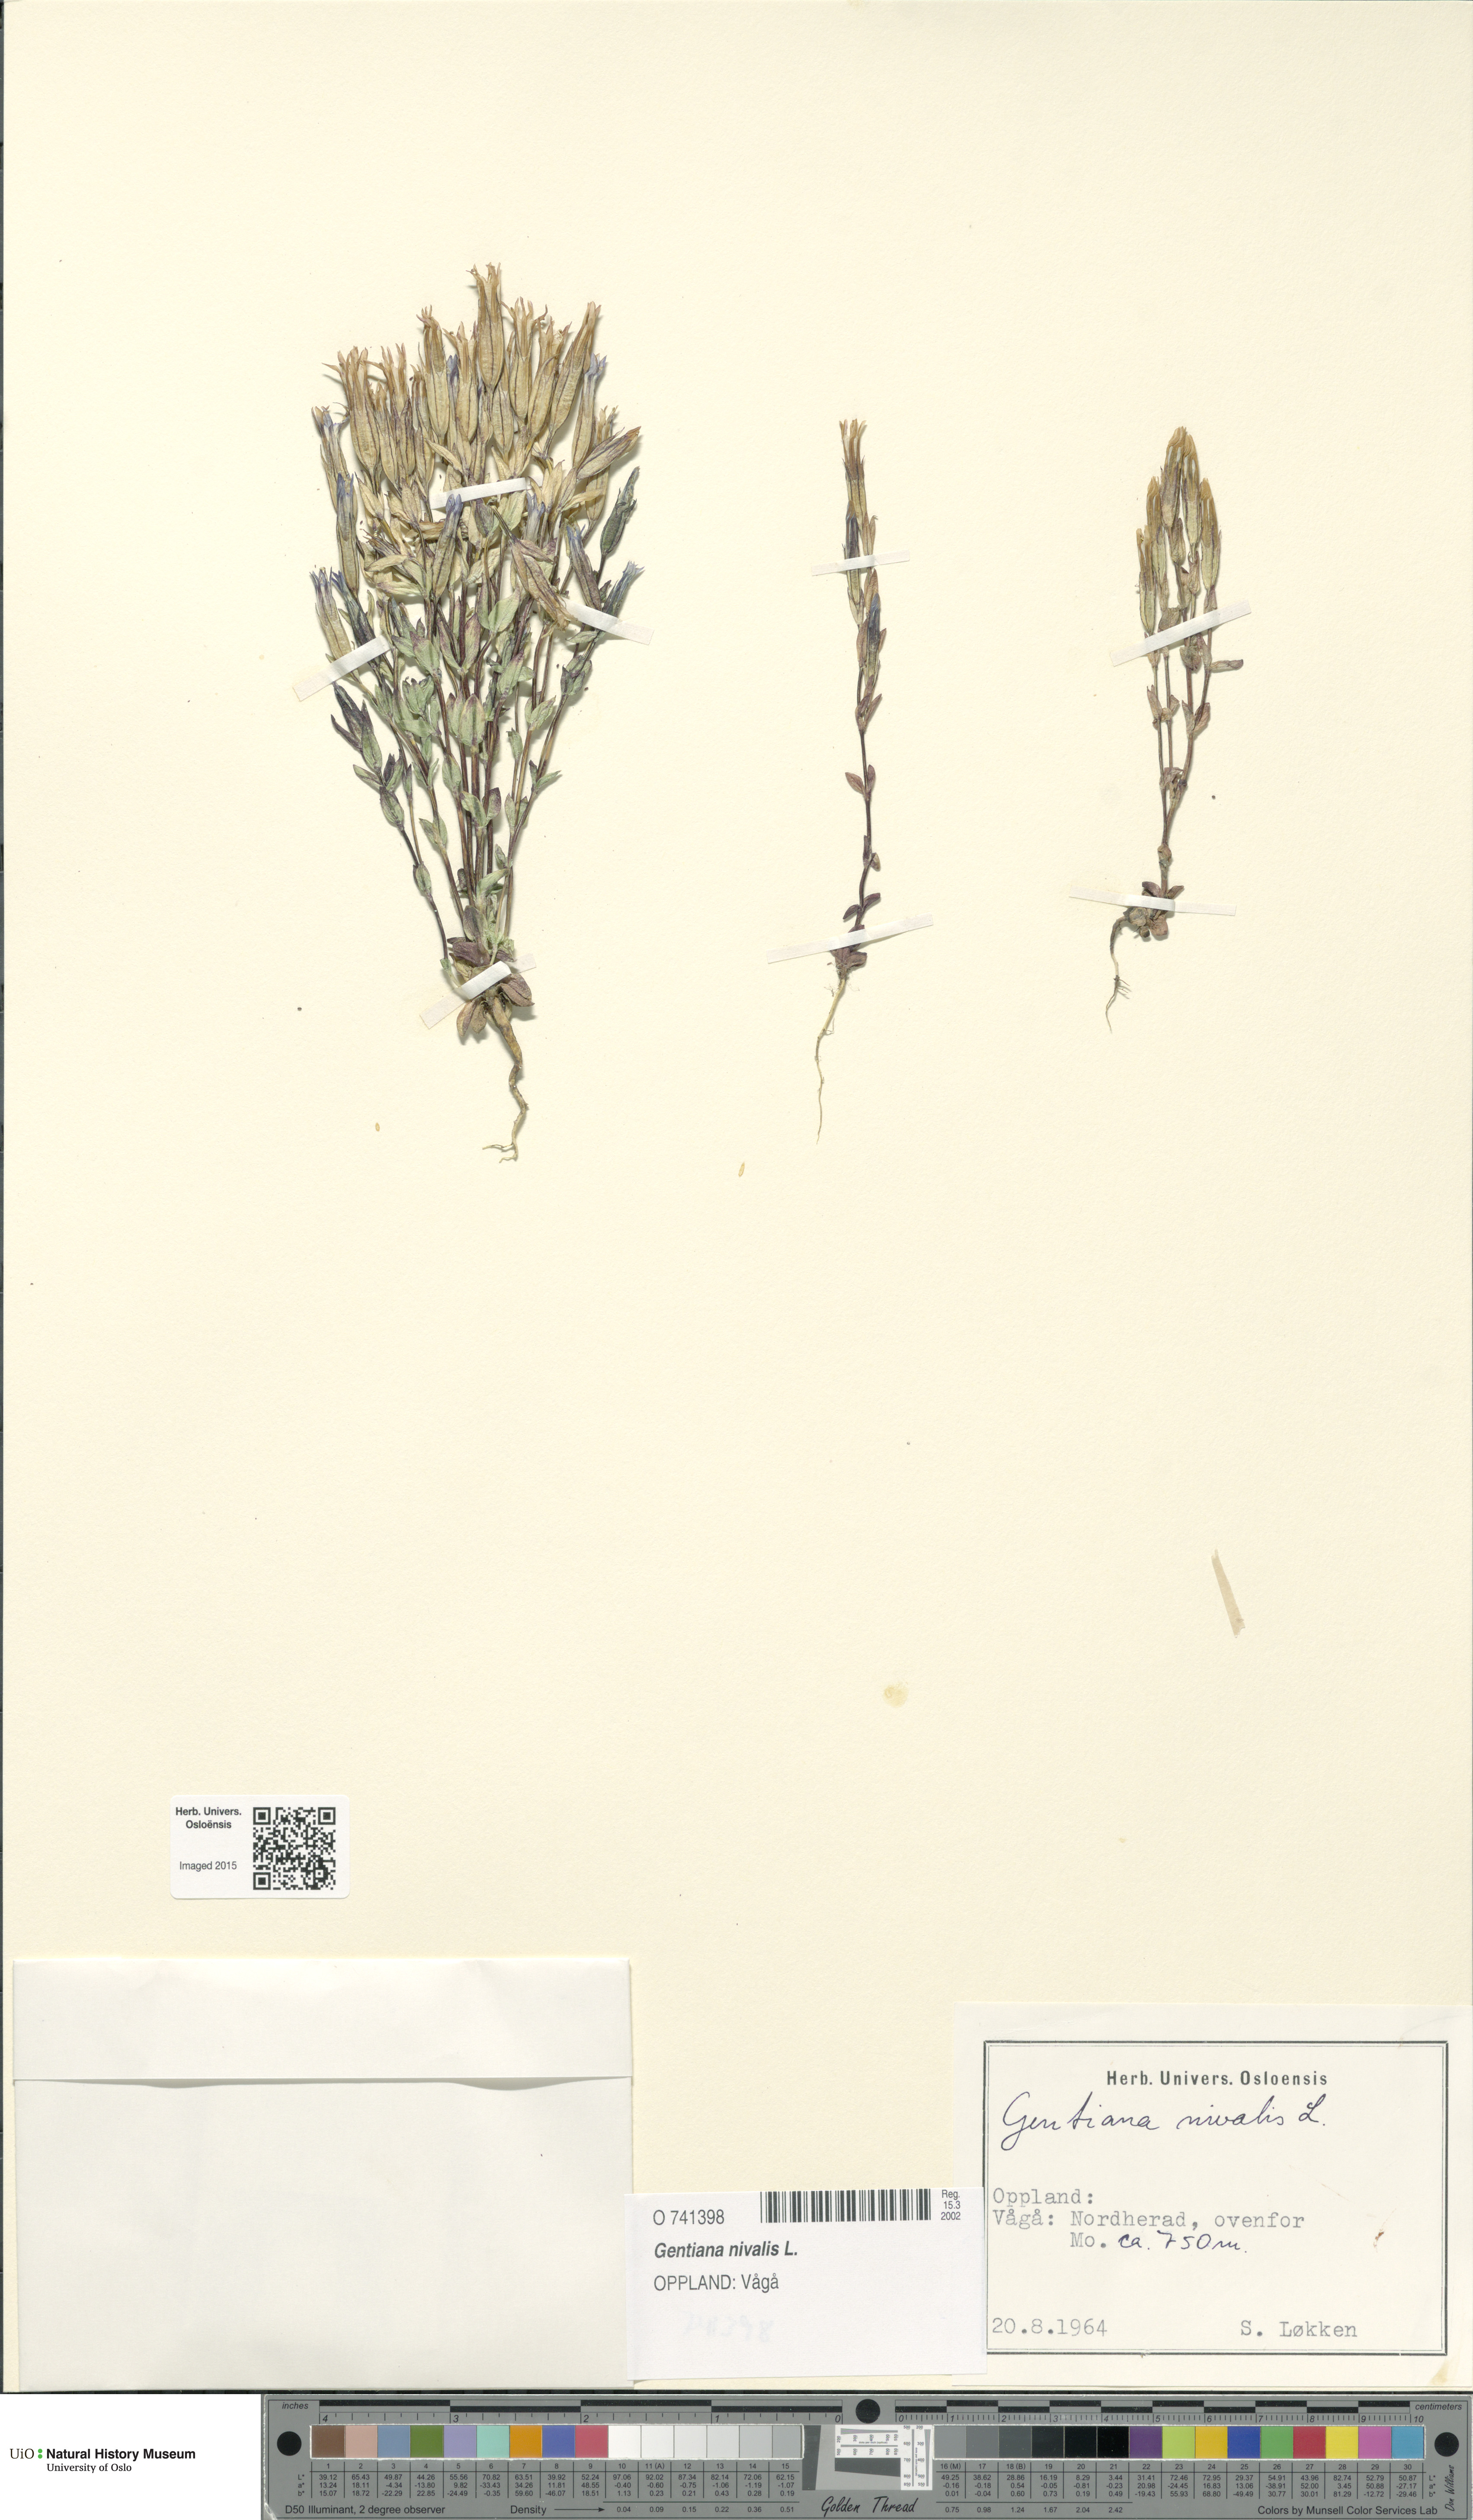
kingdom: Plantae
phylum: Tracheophyta
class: Magnoliopsida
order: Gentianales
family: Gentianaceae
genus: Gentiana
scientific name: Gentiana nivalis
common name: Alpine gentian
